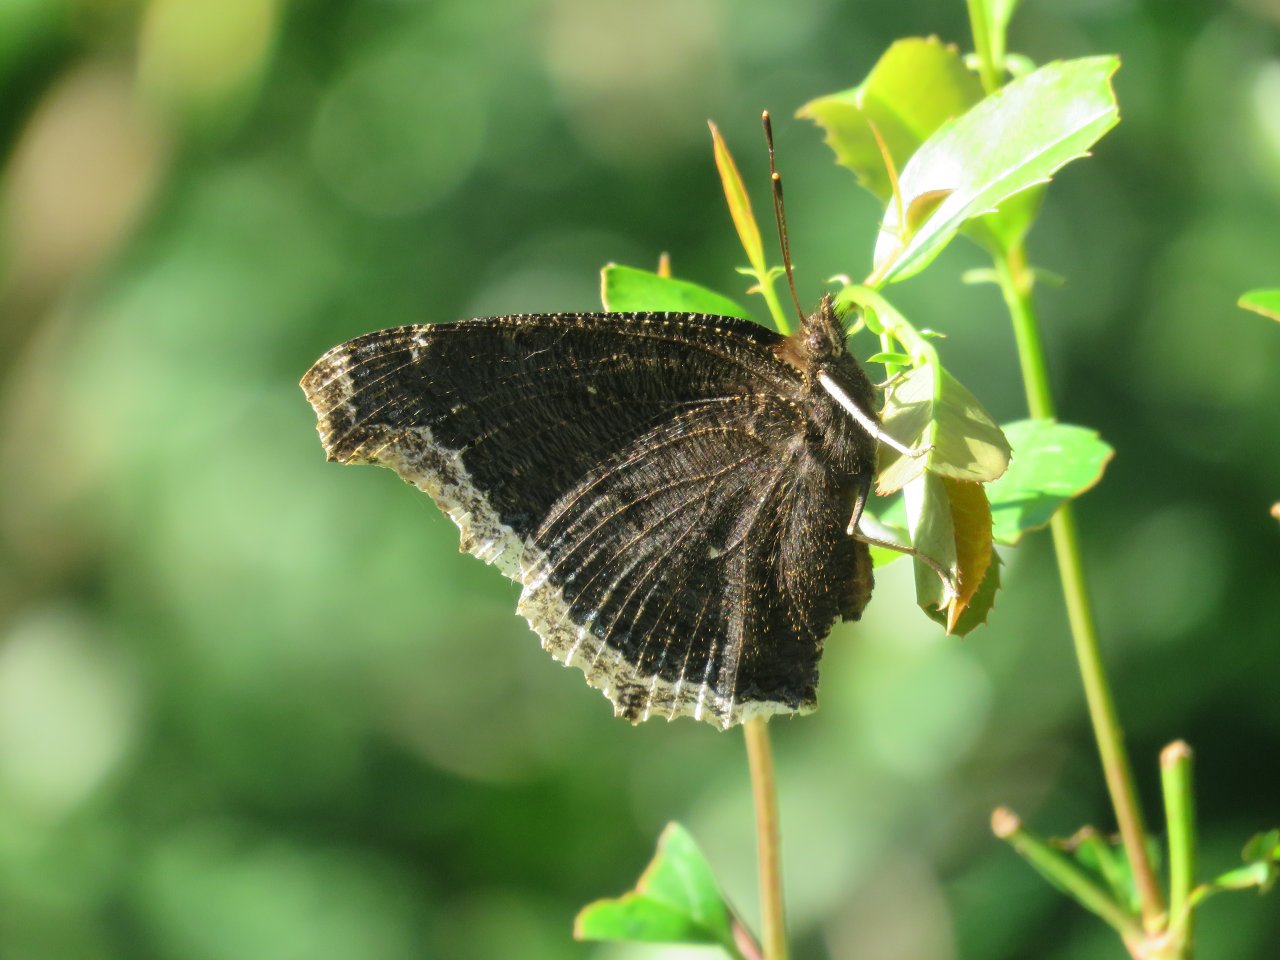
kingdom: Animalia
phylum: Arthropoda
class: Insecta
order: Lepidoptera
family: Nymphalidae
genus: Nymphalis
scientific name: Nymphalis antiopa
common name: Mourning Cloak
